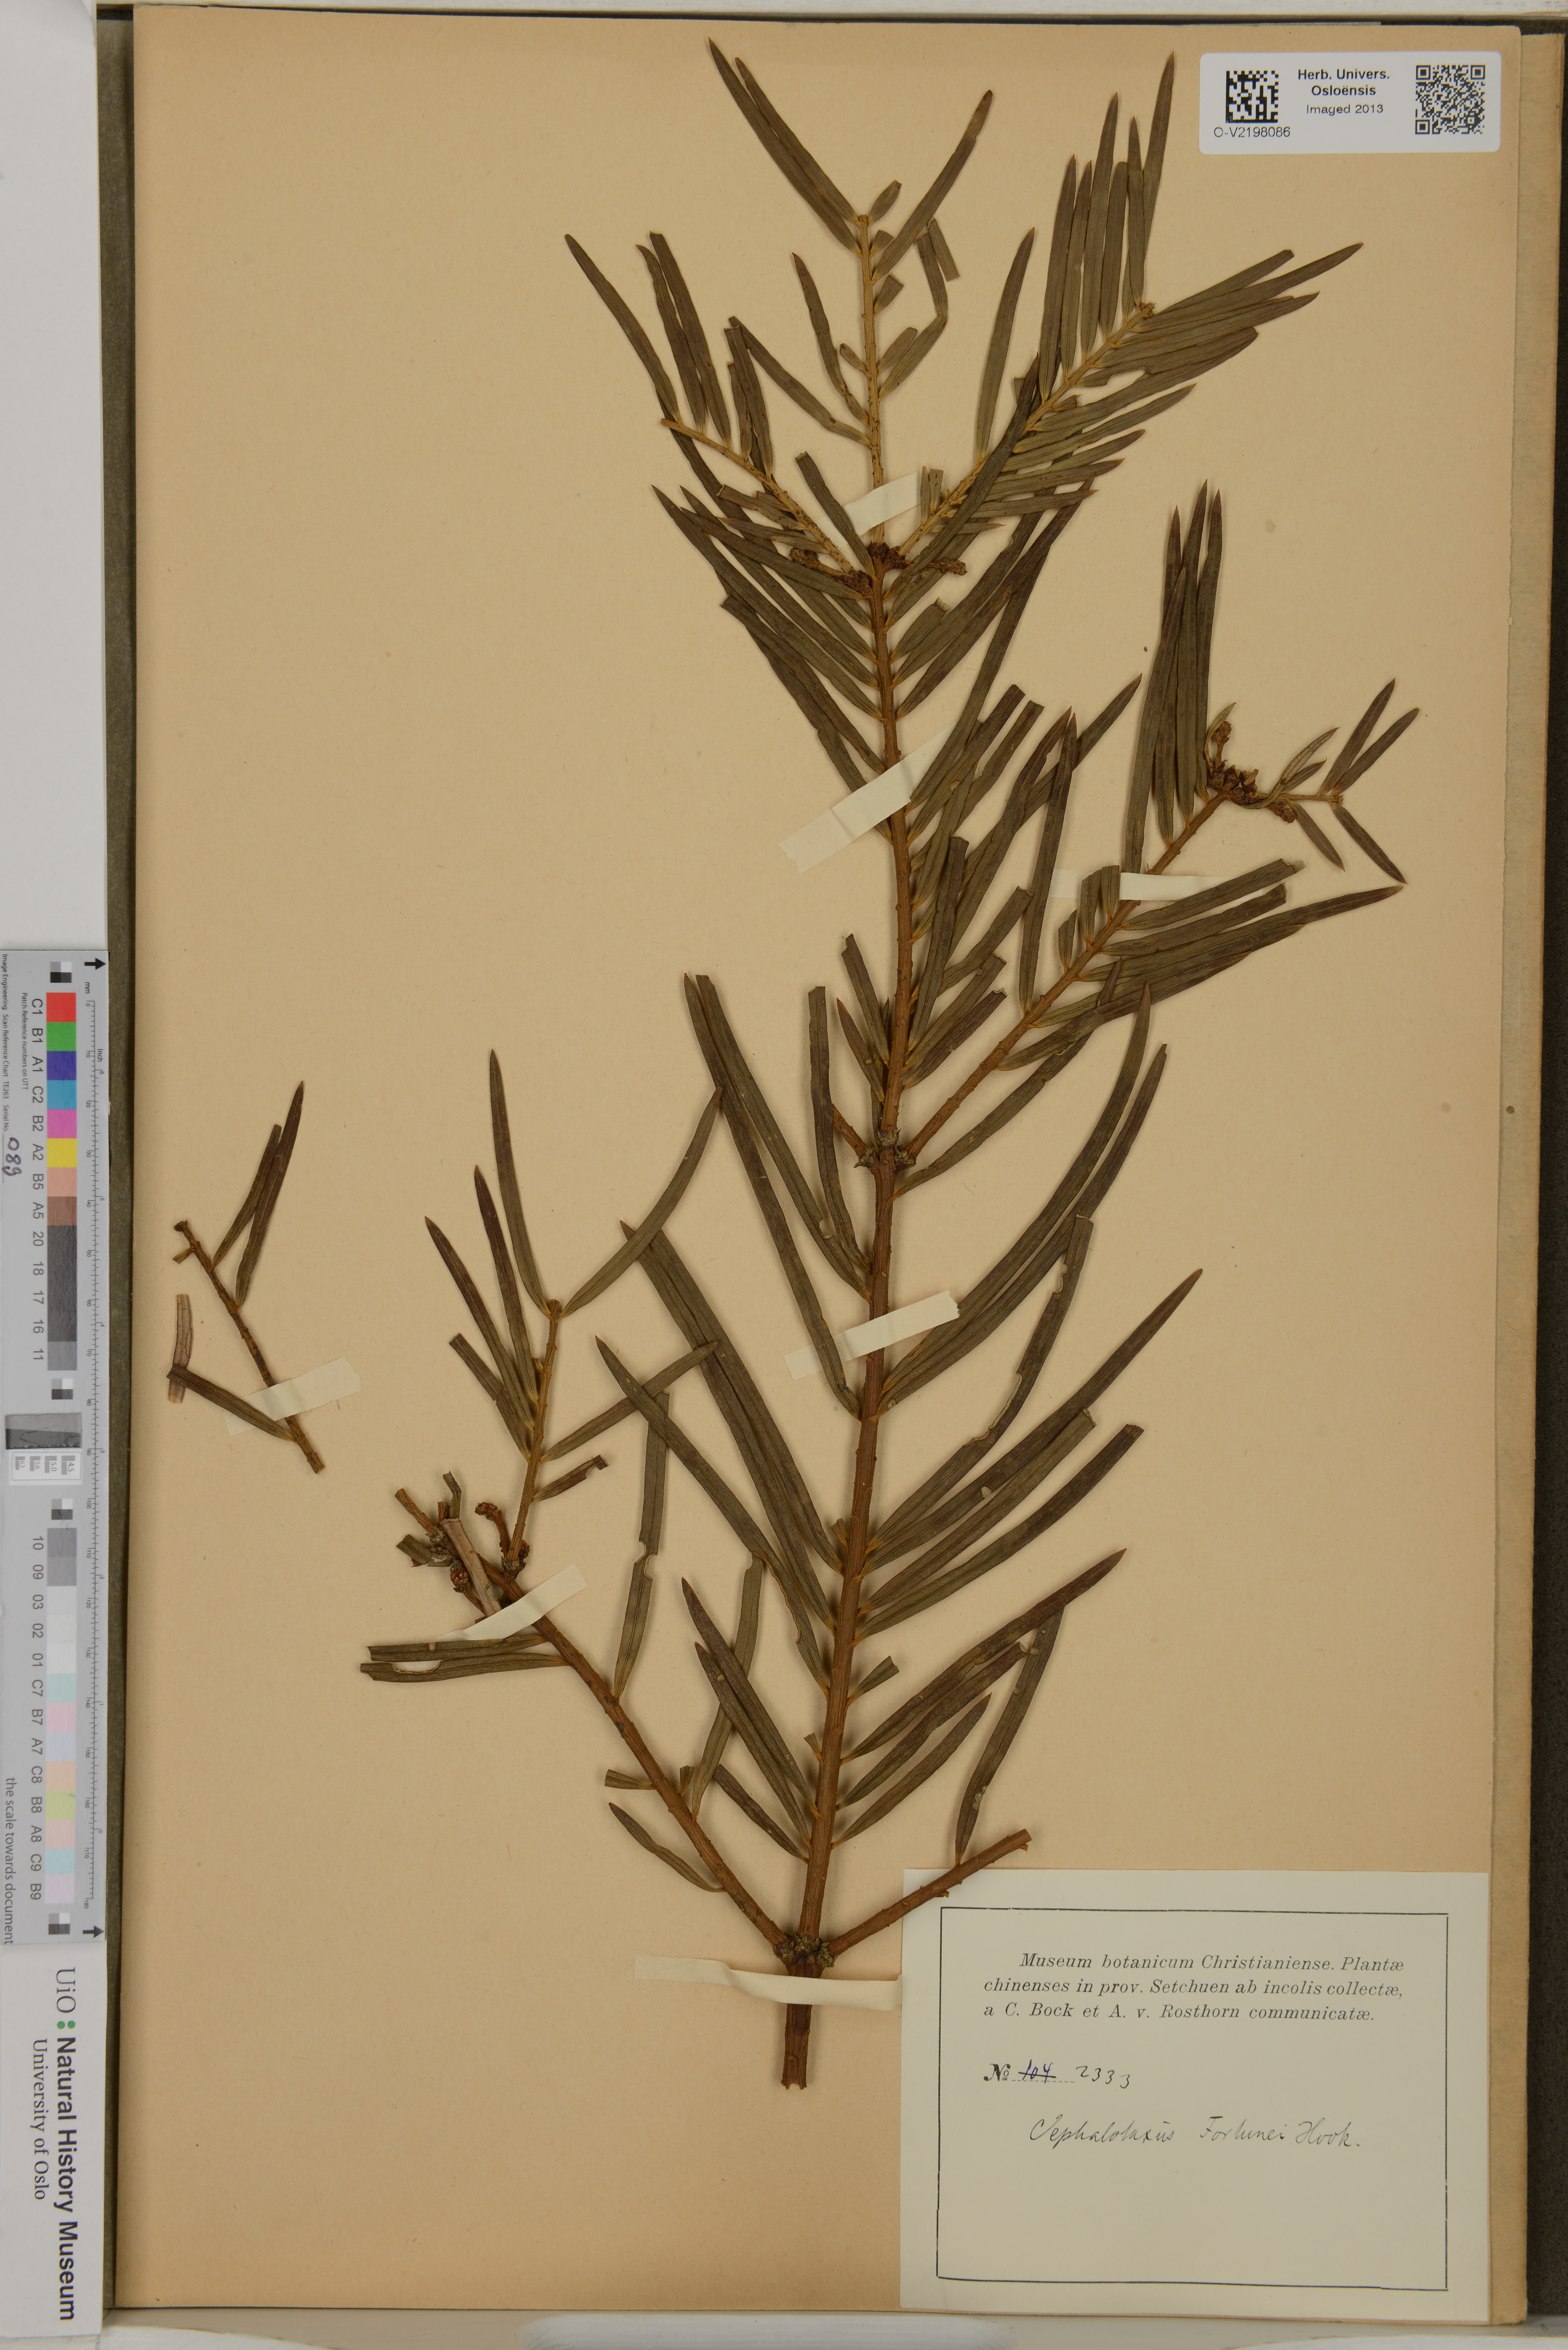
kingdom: Plantae
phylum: Tracheophyta
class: Pinopsida
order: Pinales
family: Cephalotaxaceae
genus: Cephalotaxus
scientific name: Cephalotaxus fortunei
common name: Chinese plum-yew
